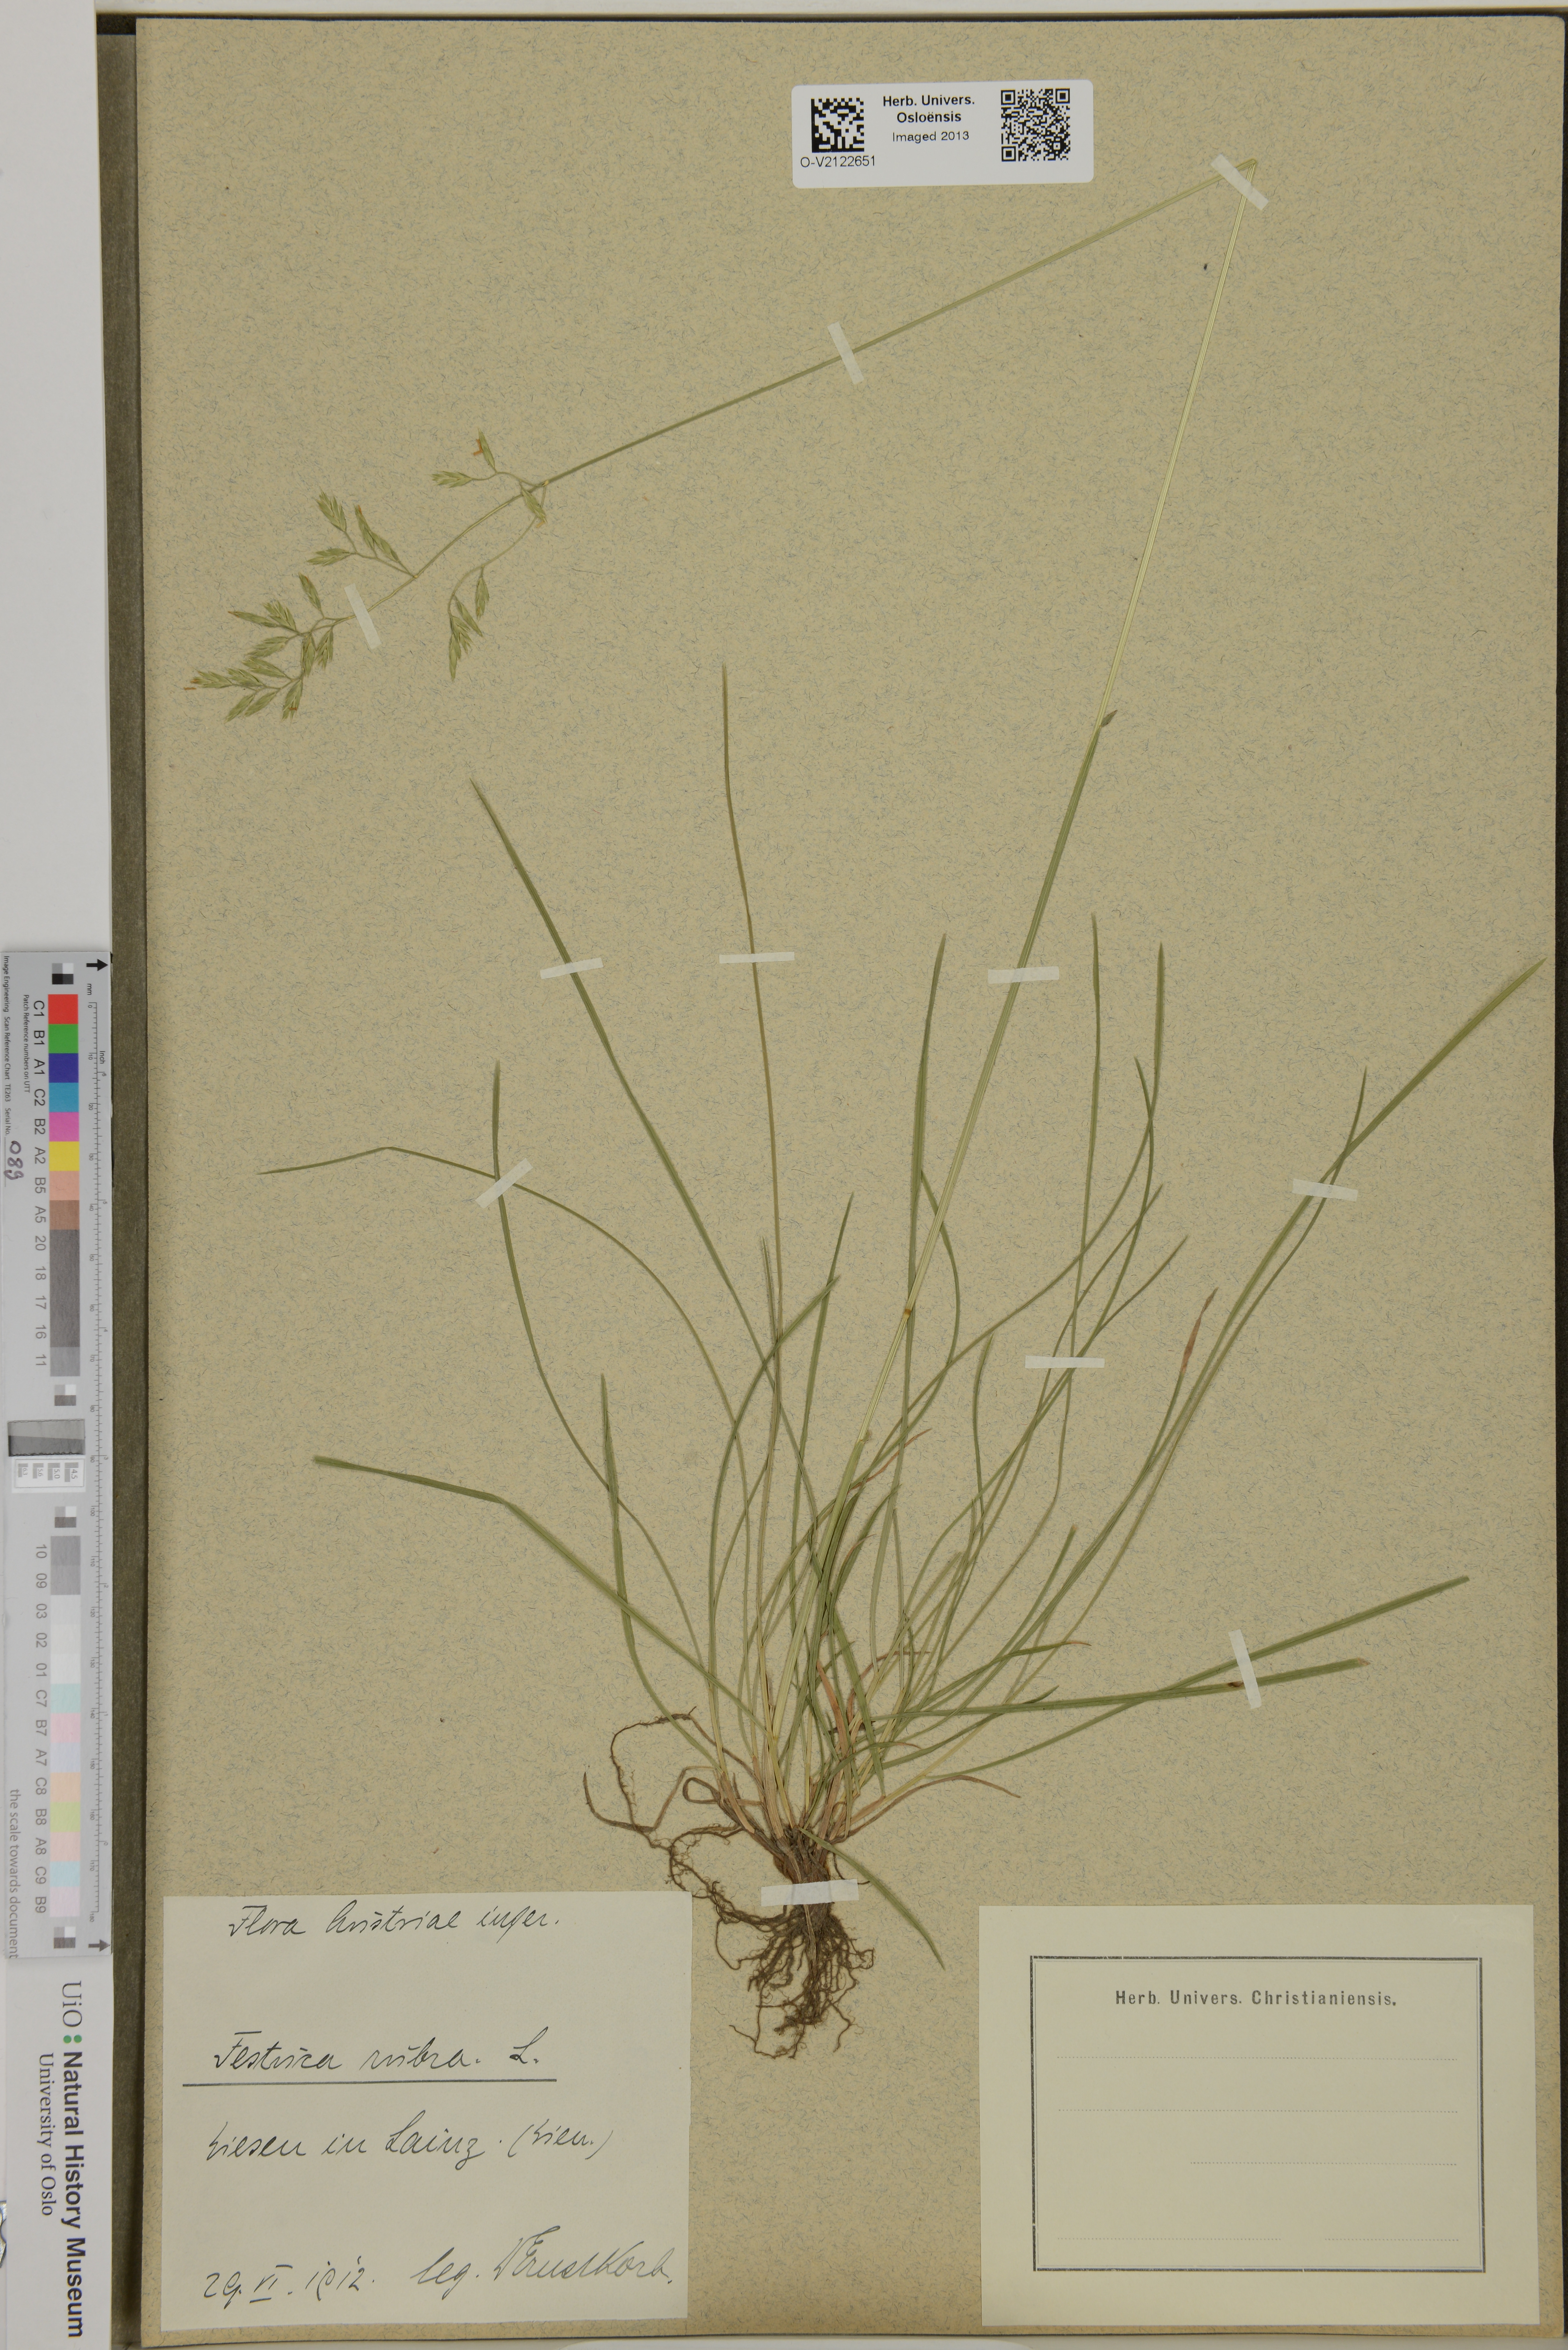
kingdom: Plantae
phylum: Tracheophyta
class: Liliopsida
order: Poales
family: Poaceae
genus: Festuca
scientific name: Festuca rubra
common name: Red fescue
